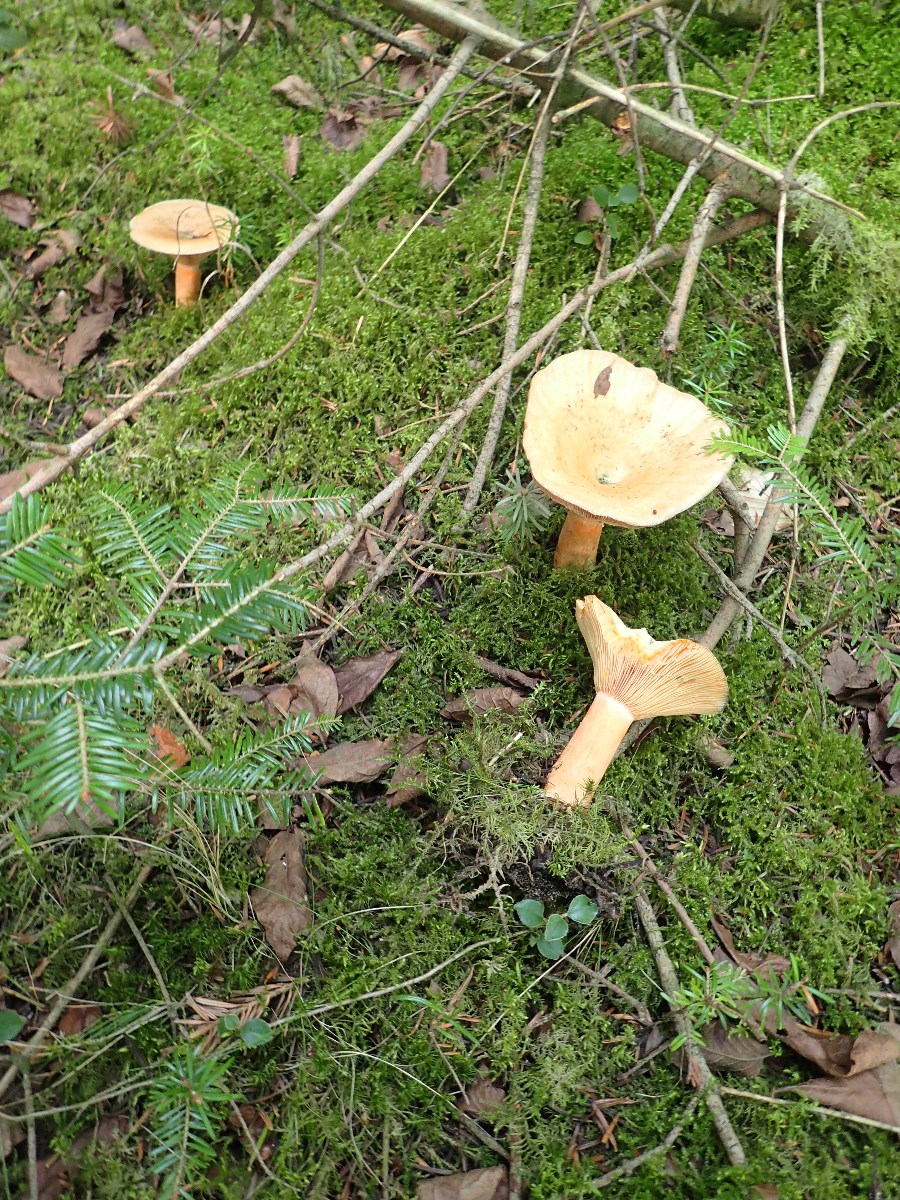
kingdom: Fungi
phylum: Basidiomycota
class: Agaricomycetes
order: Russulales
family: Russulaceae
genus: Lactarius
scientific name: Lactarius deterrimus
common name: gran-mælkehat
